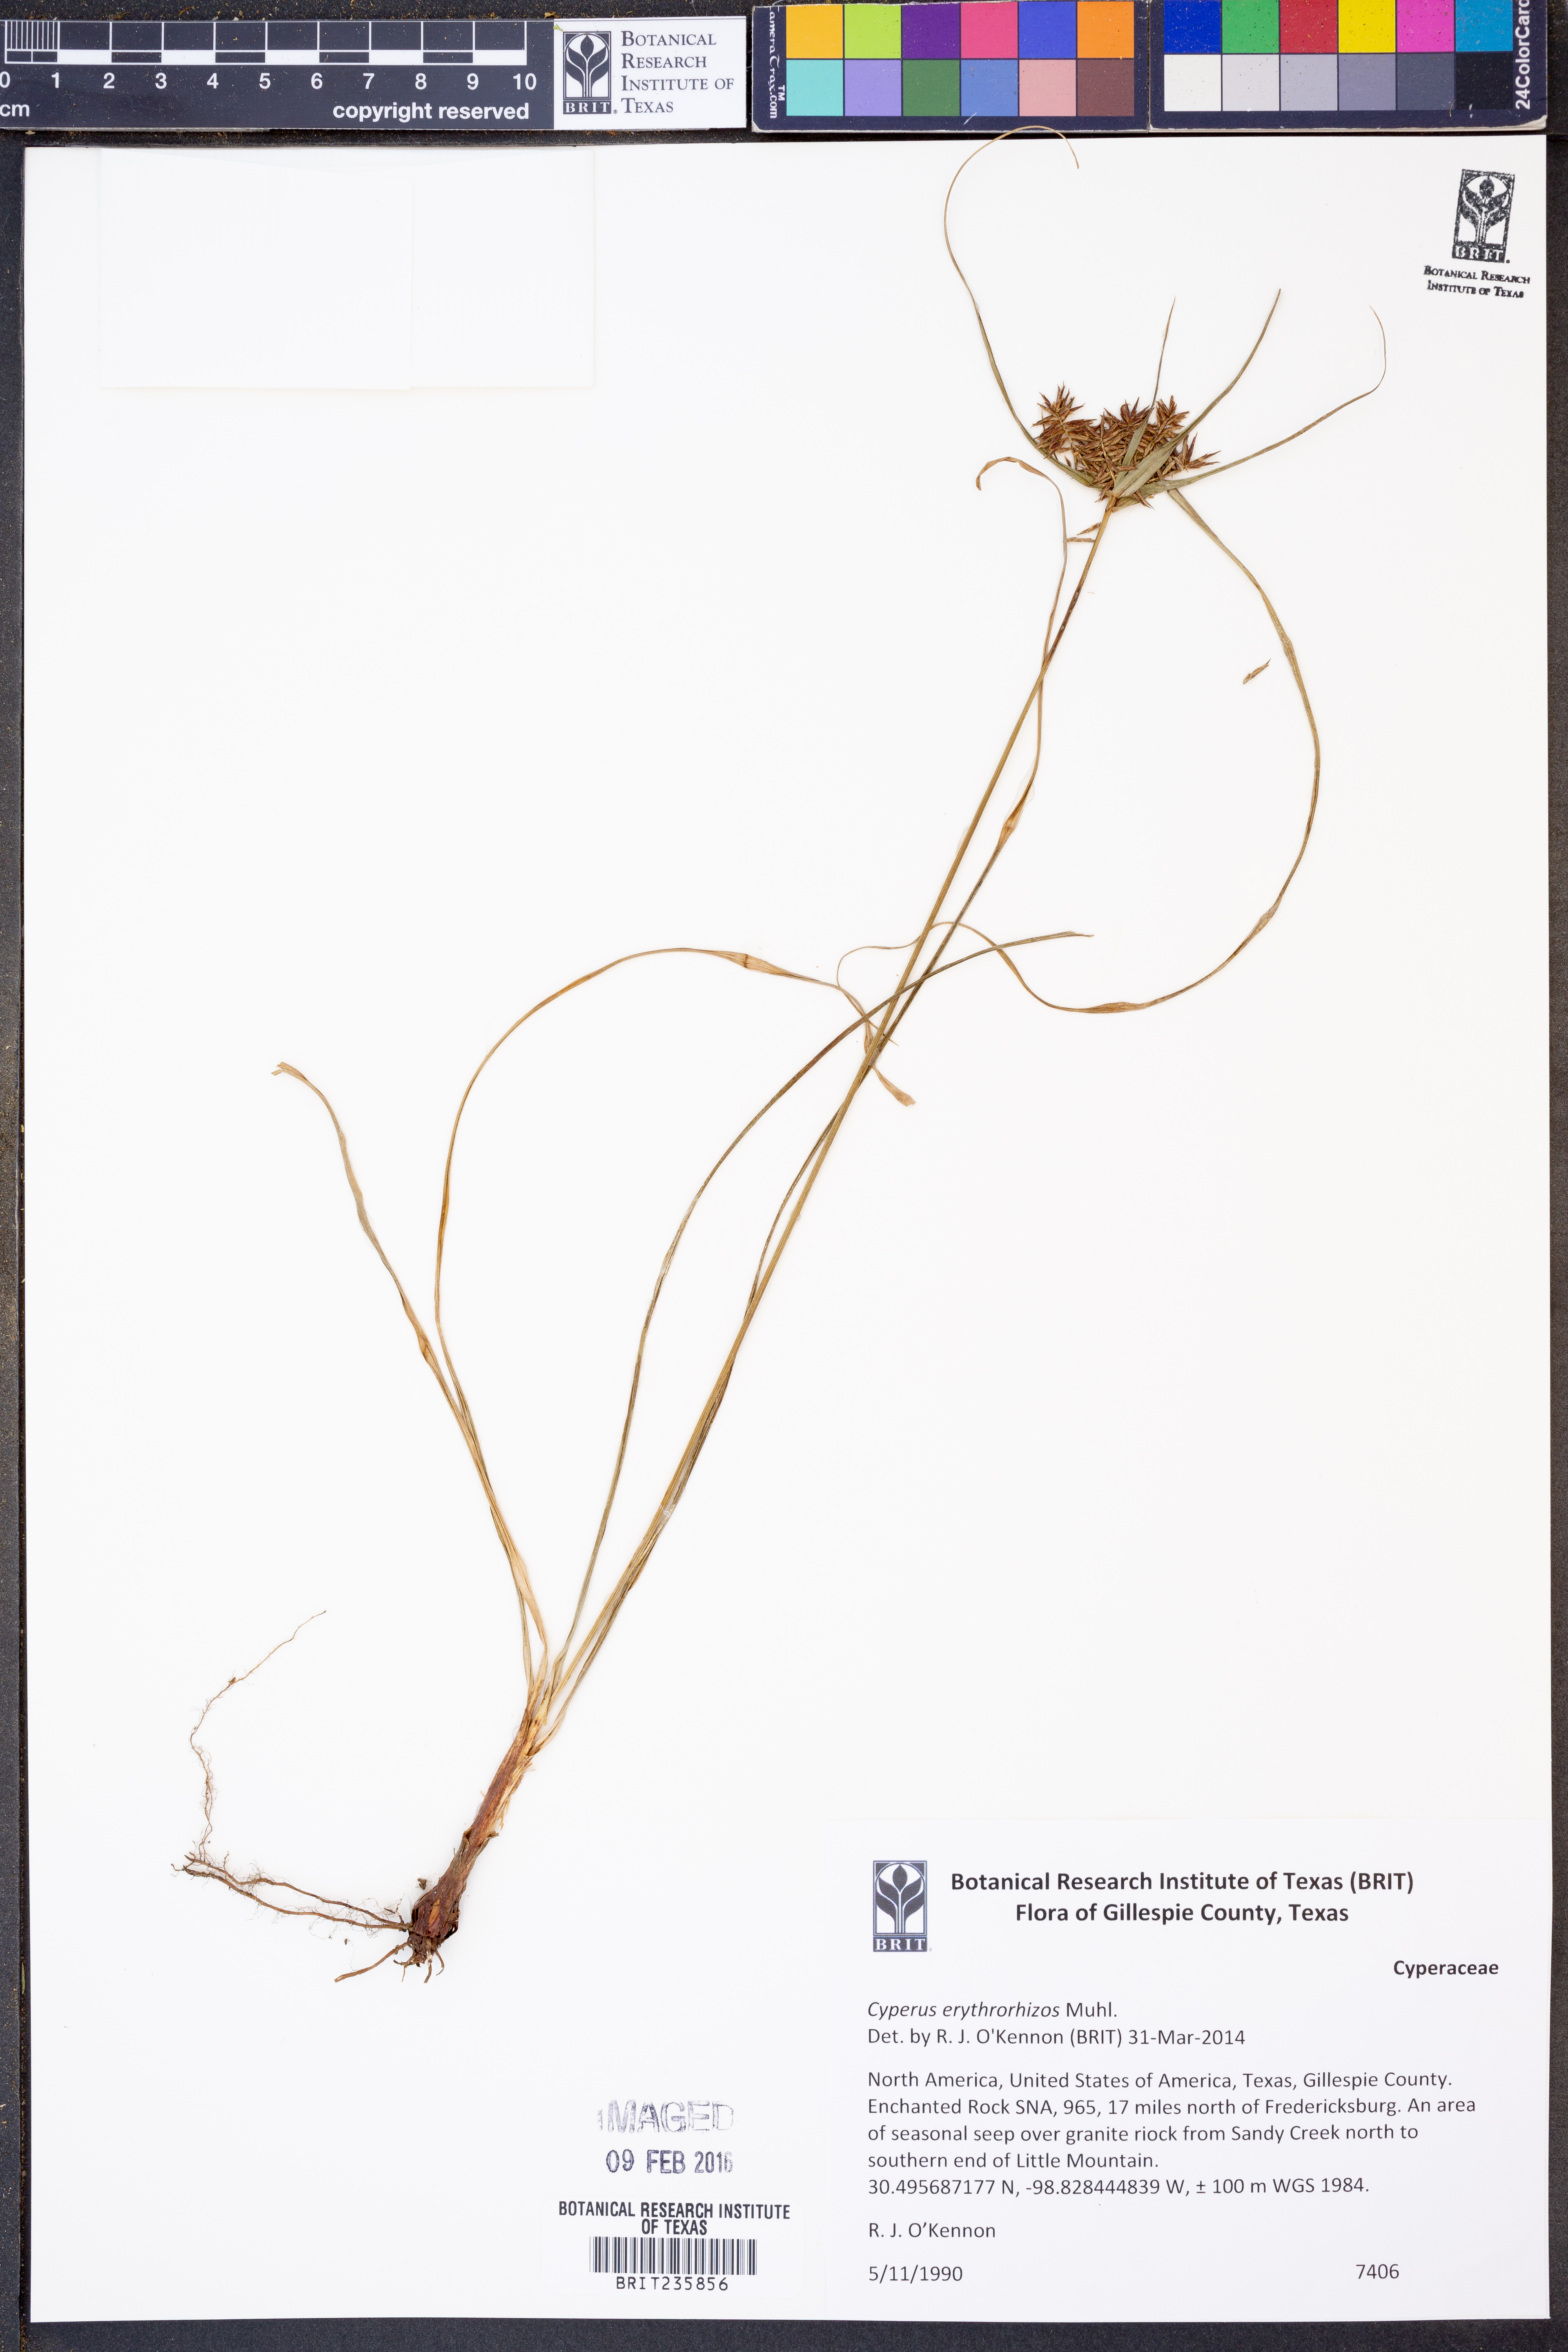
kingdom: Plantae
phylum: Tracheophyta
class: Liliopsida
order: Poales
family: Cyperaceae
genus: Cyperus
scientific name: Cyperus erythrorhizos
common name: Red-root flat sedge
